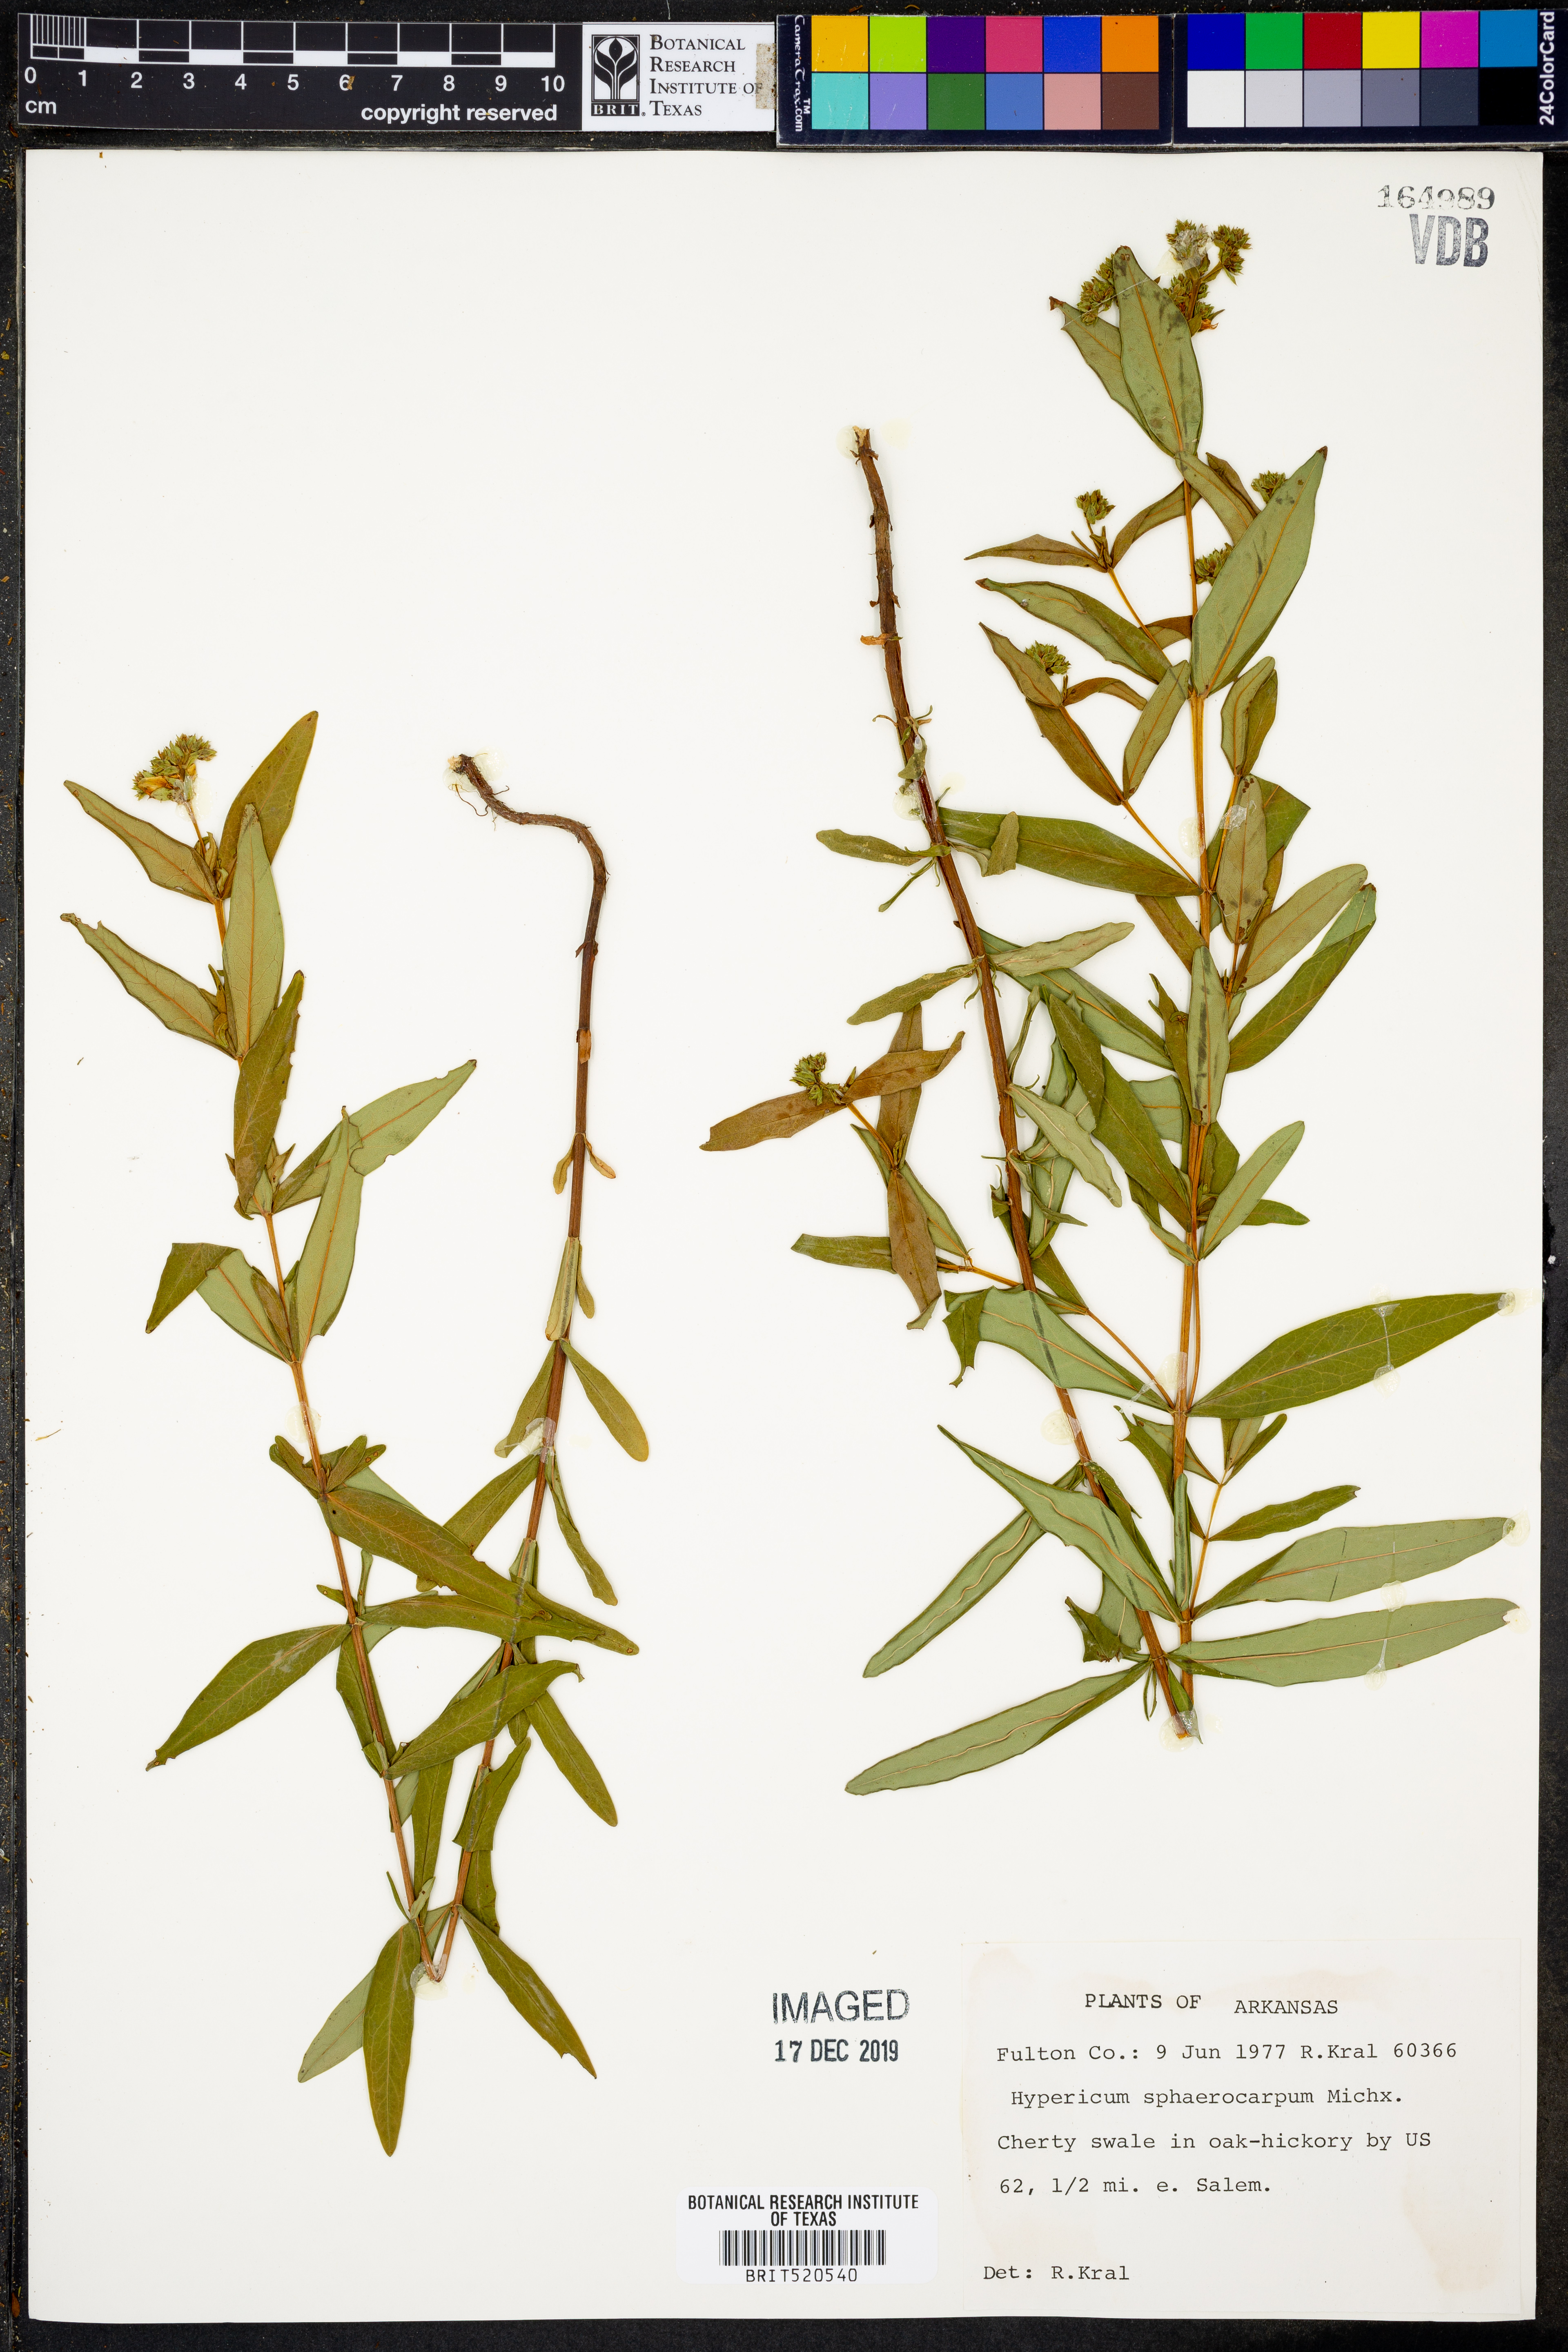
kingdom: Plantae
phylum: Tracheophyta
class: Magnoliopsida
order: Malpighiales
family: Hypericaceae
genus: Hypericum
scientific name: Hypericum sphaerocarpum
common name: Round-fruited st. john's-wort
